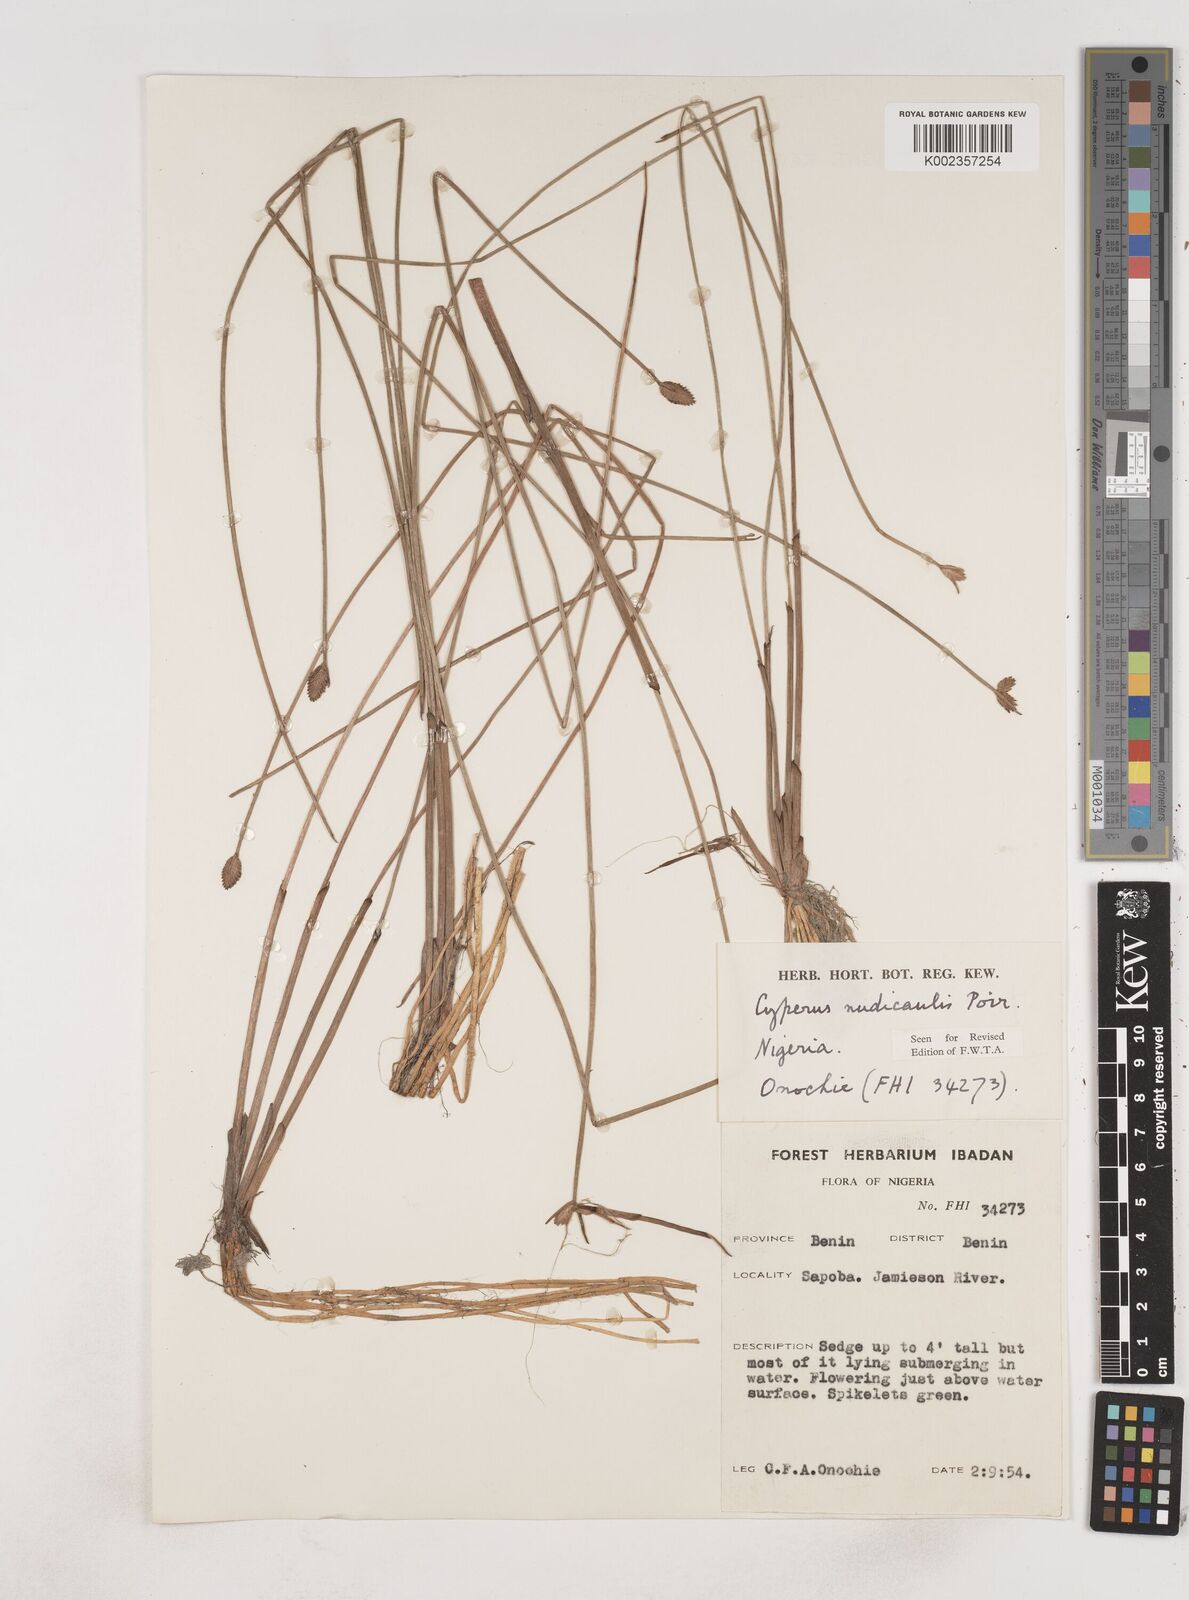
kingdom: Plantae
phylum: Tracheophyta
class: Liliopsida
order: Poales
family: Cyperaceae
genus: Cyperus
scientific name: Cyperus pectinatus
